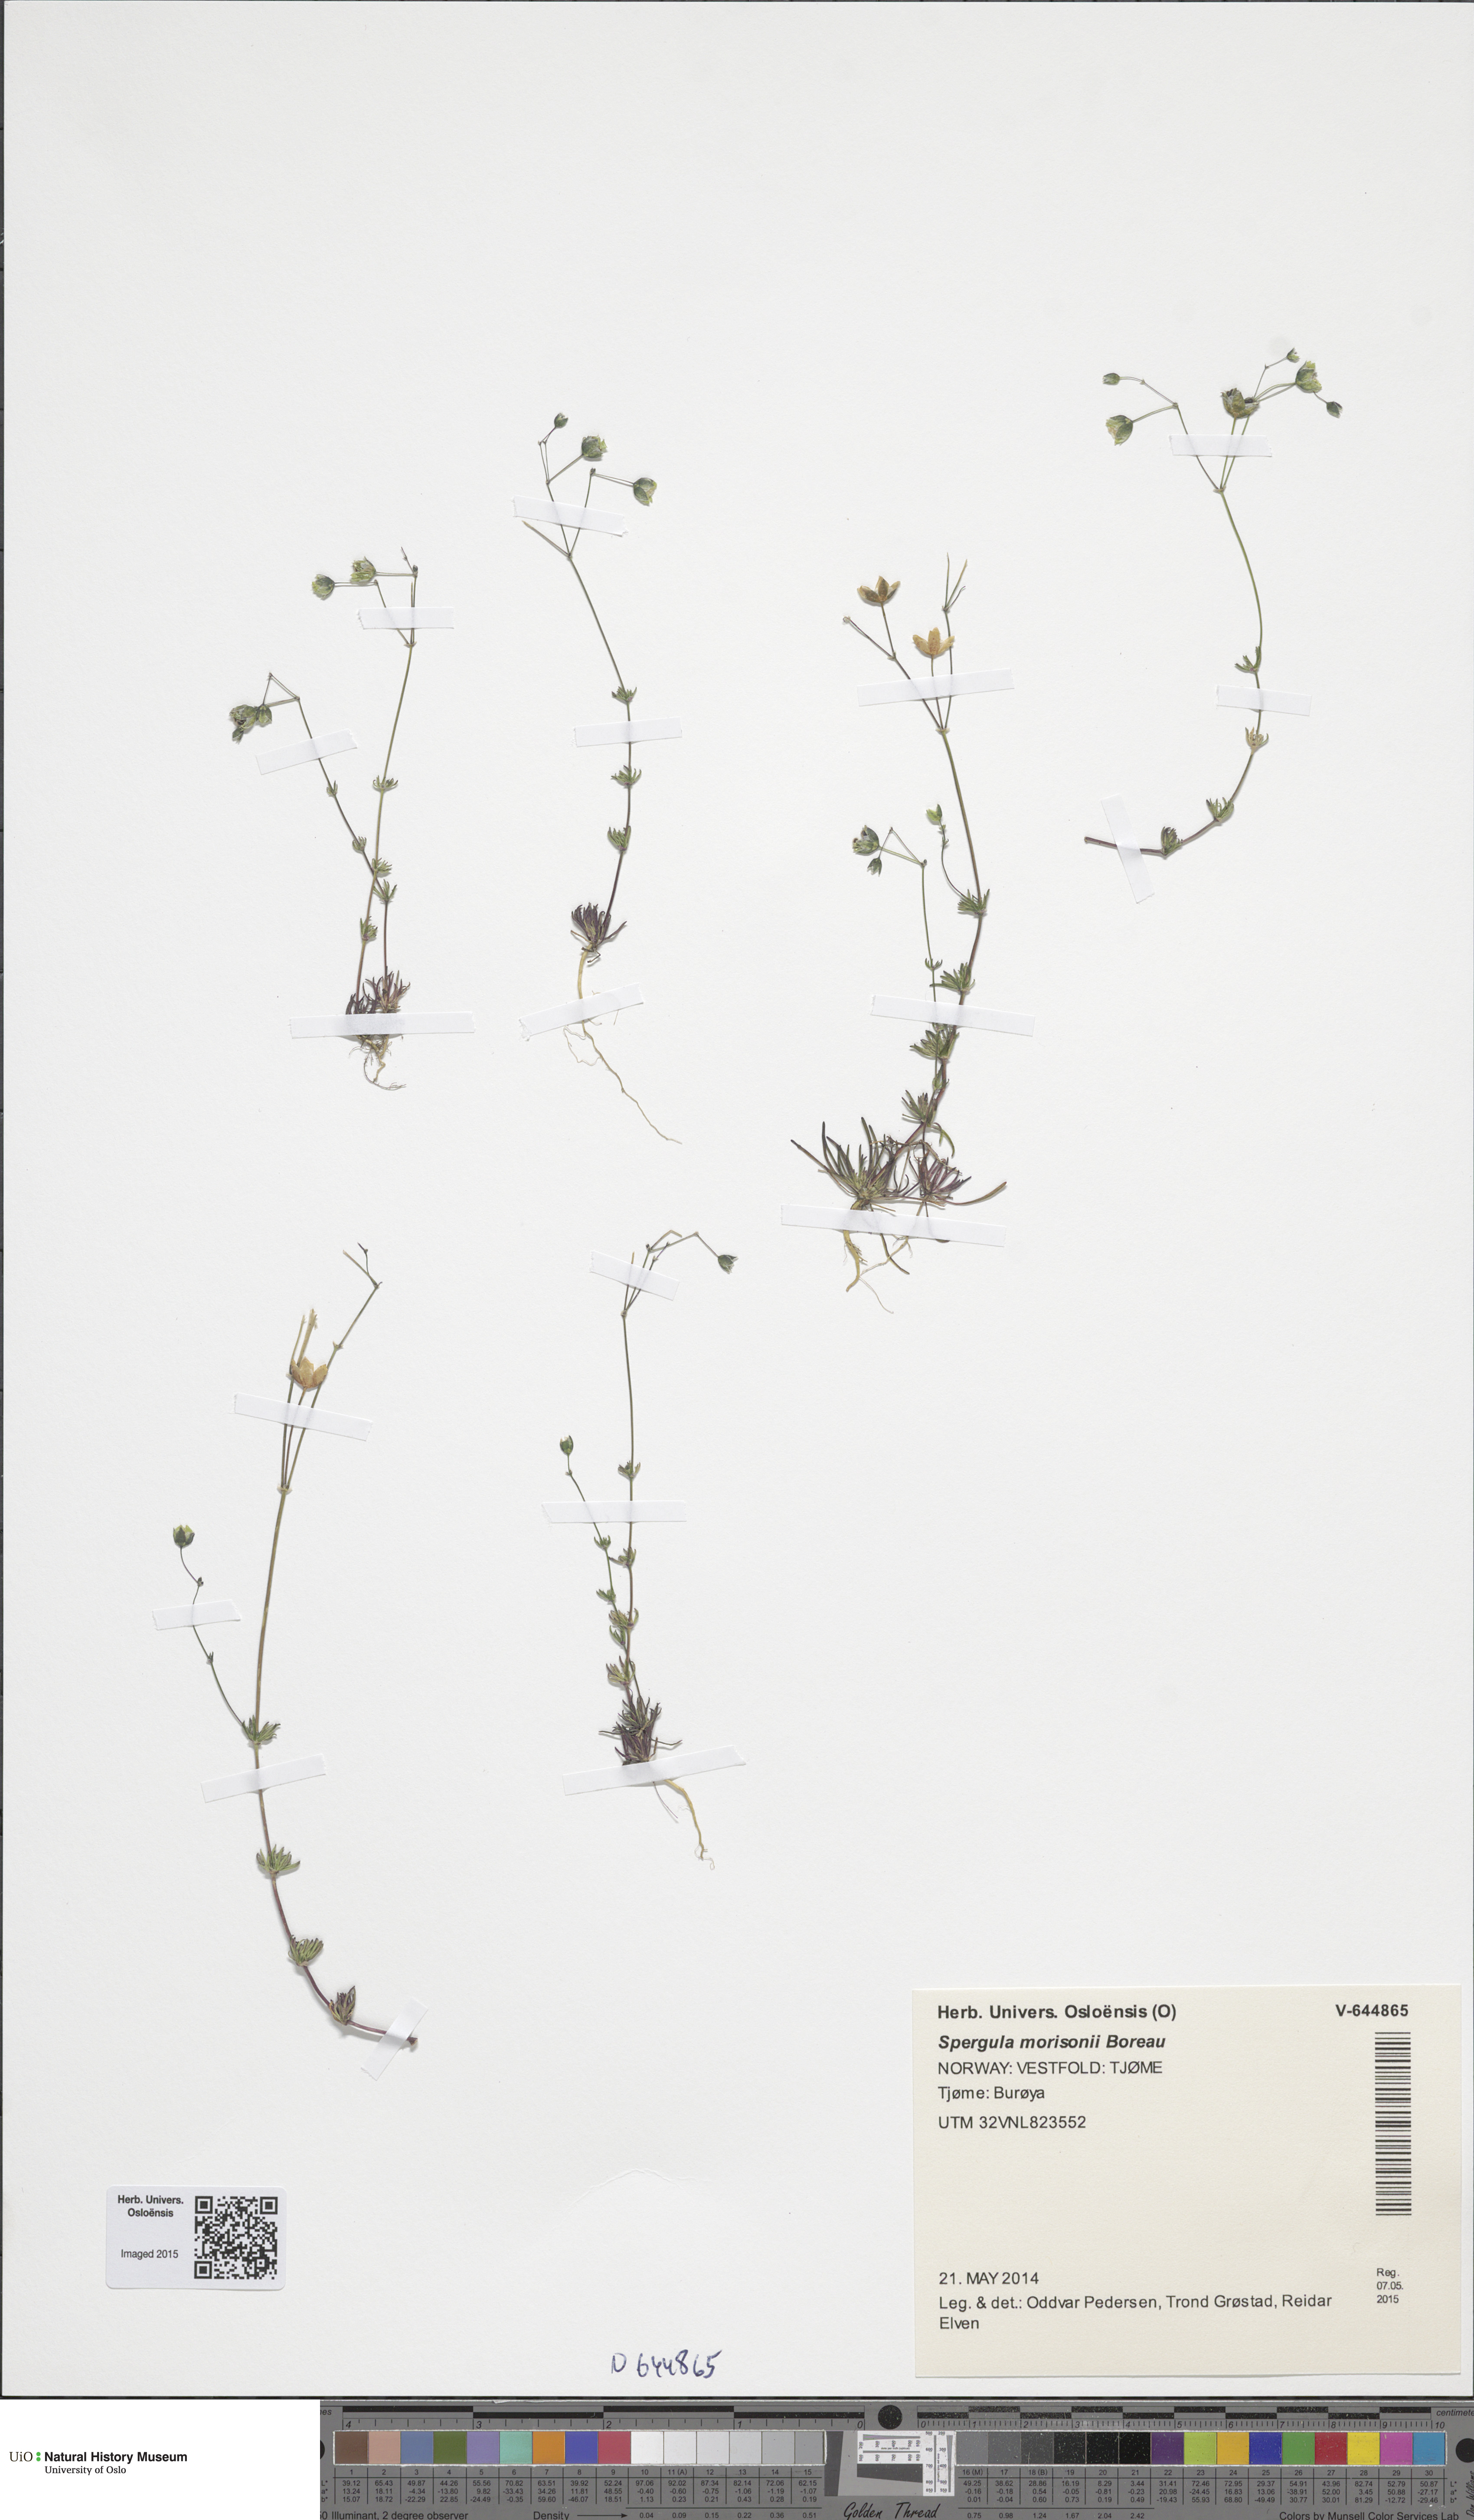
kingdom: Plantae
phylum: Tracheophyta
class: Magnoliopsida
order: Caryophyllales
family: Caryophyllaceae
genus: Spergula
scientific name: Spergula morisonii
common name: Pearlwort spurrey
